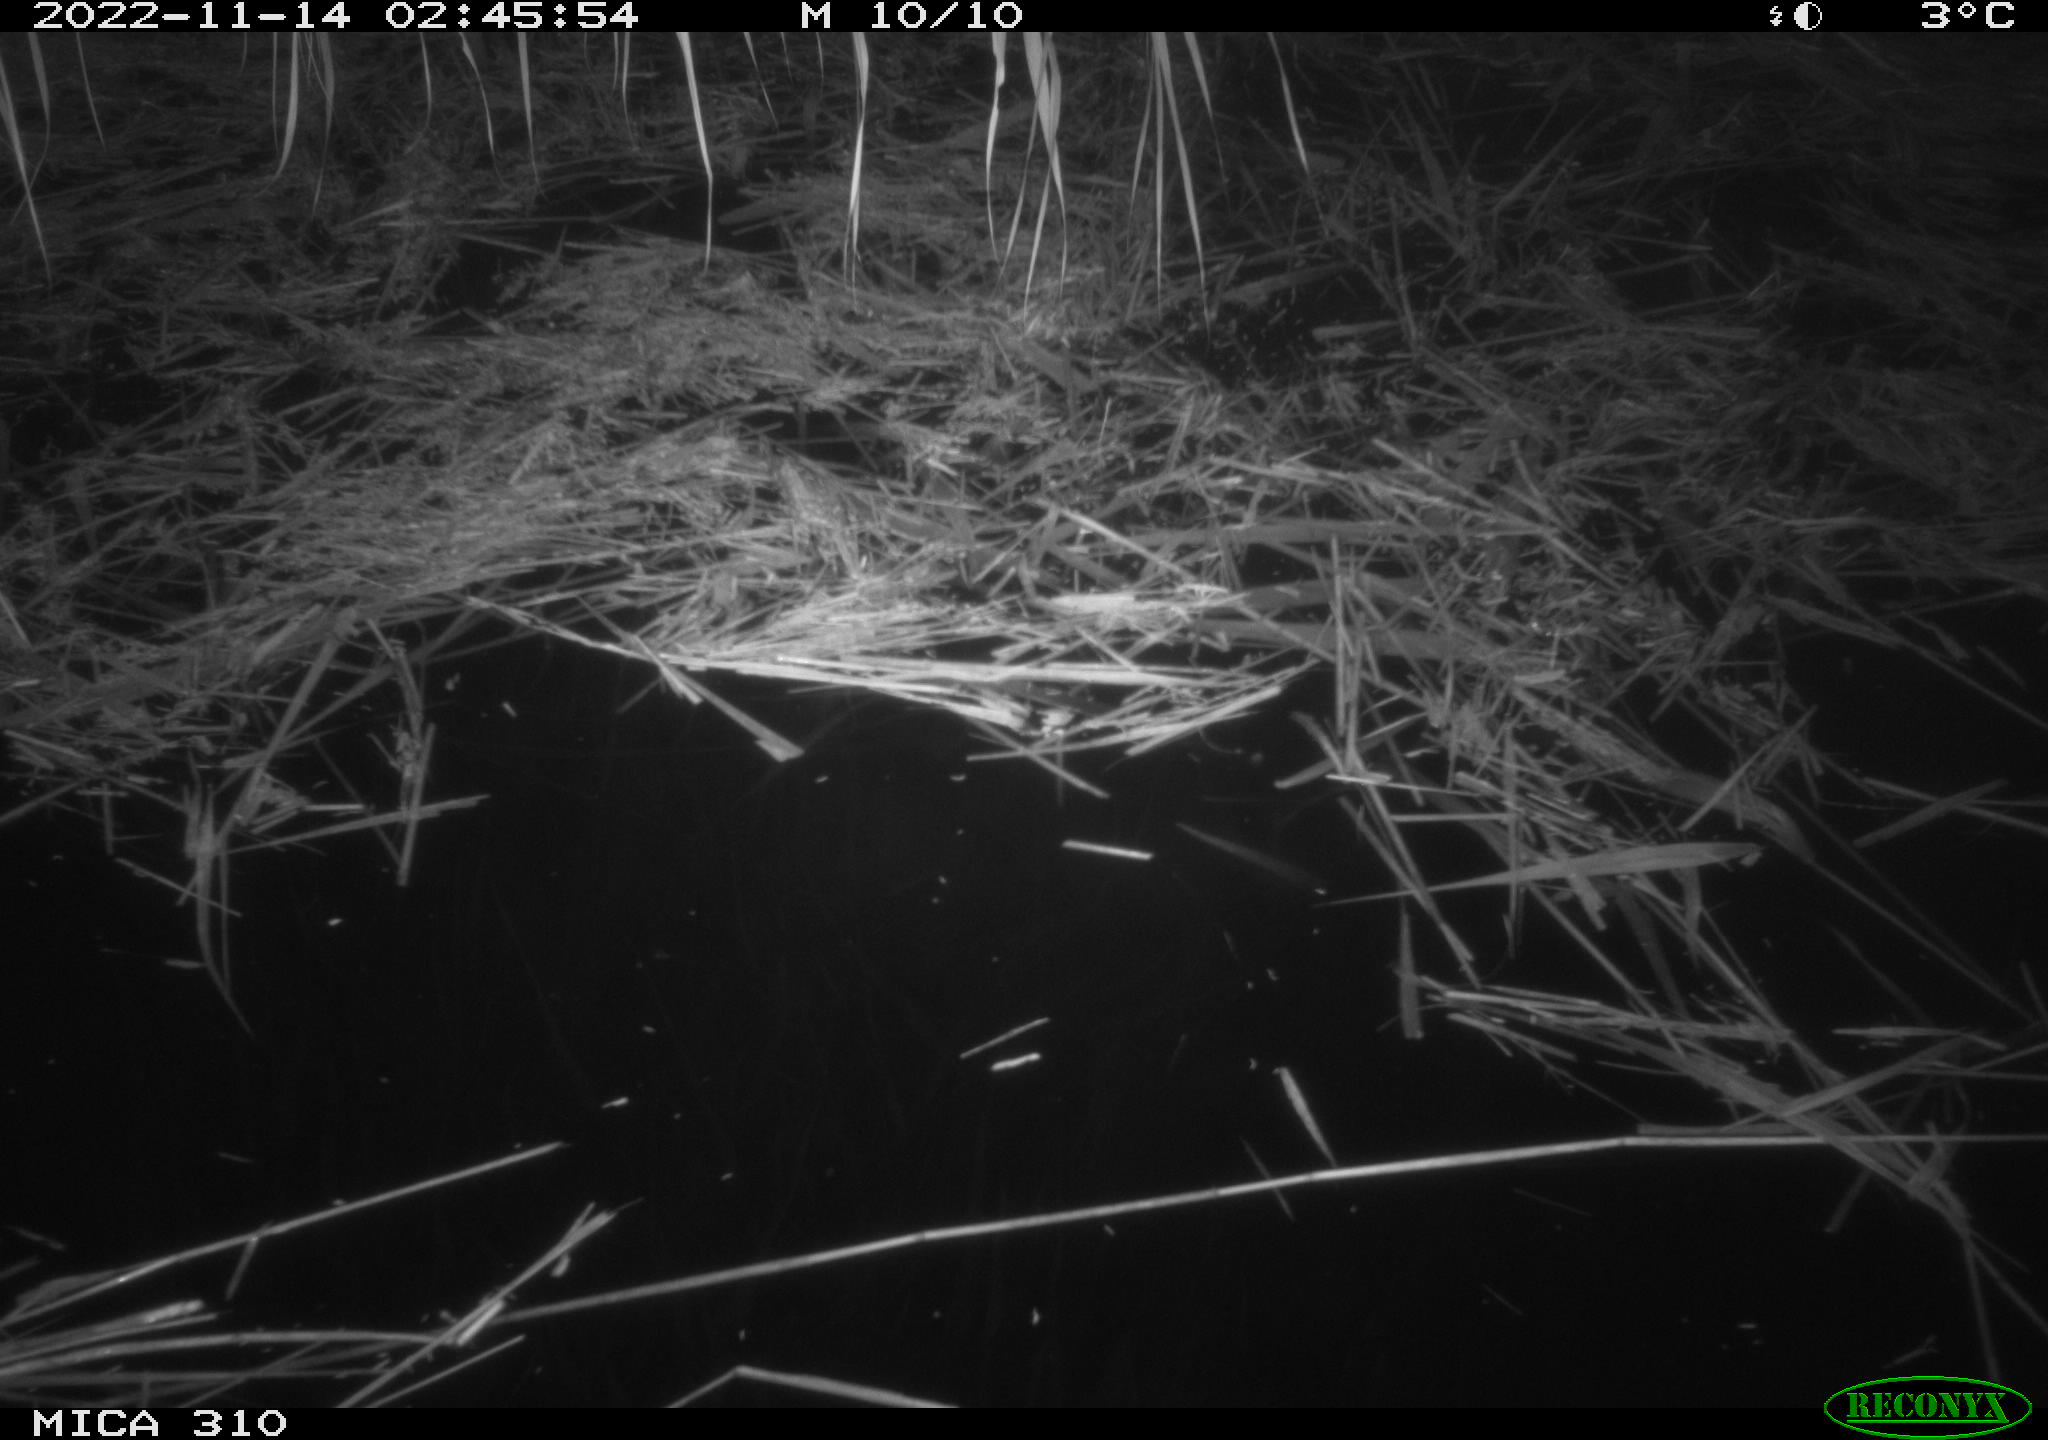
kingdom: Animalia
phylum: Chordata
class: Mammalia
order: Rodentia
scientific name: Rodentia
